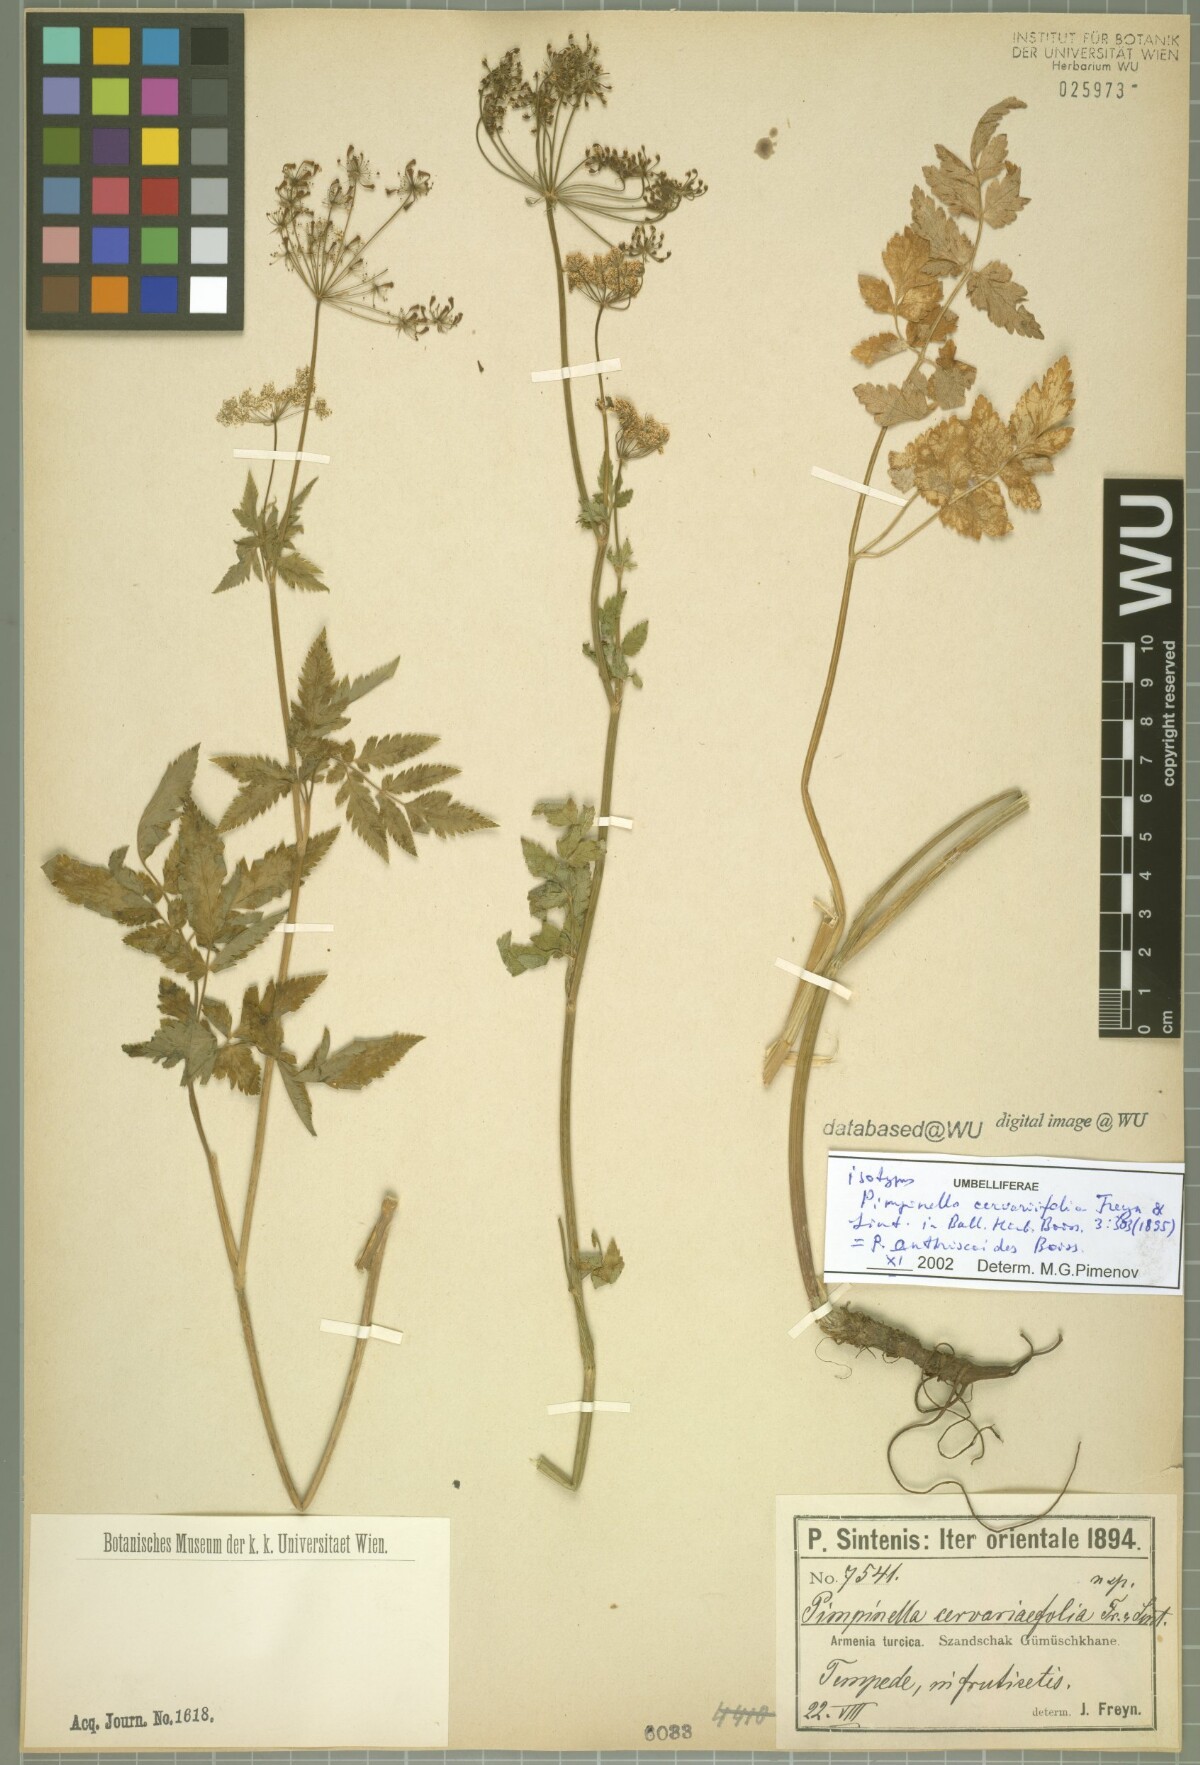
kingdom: Plantae
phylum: Tracheophyta
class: Magnoliopsida
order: Apiales
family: Apiaceae
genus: Aegopodium
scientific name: Aegopodium tribracteolatum
